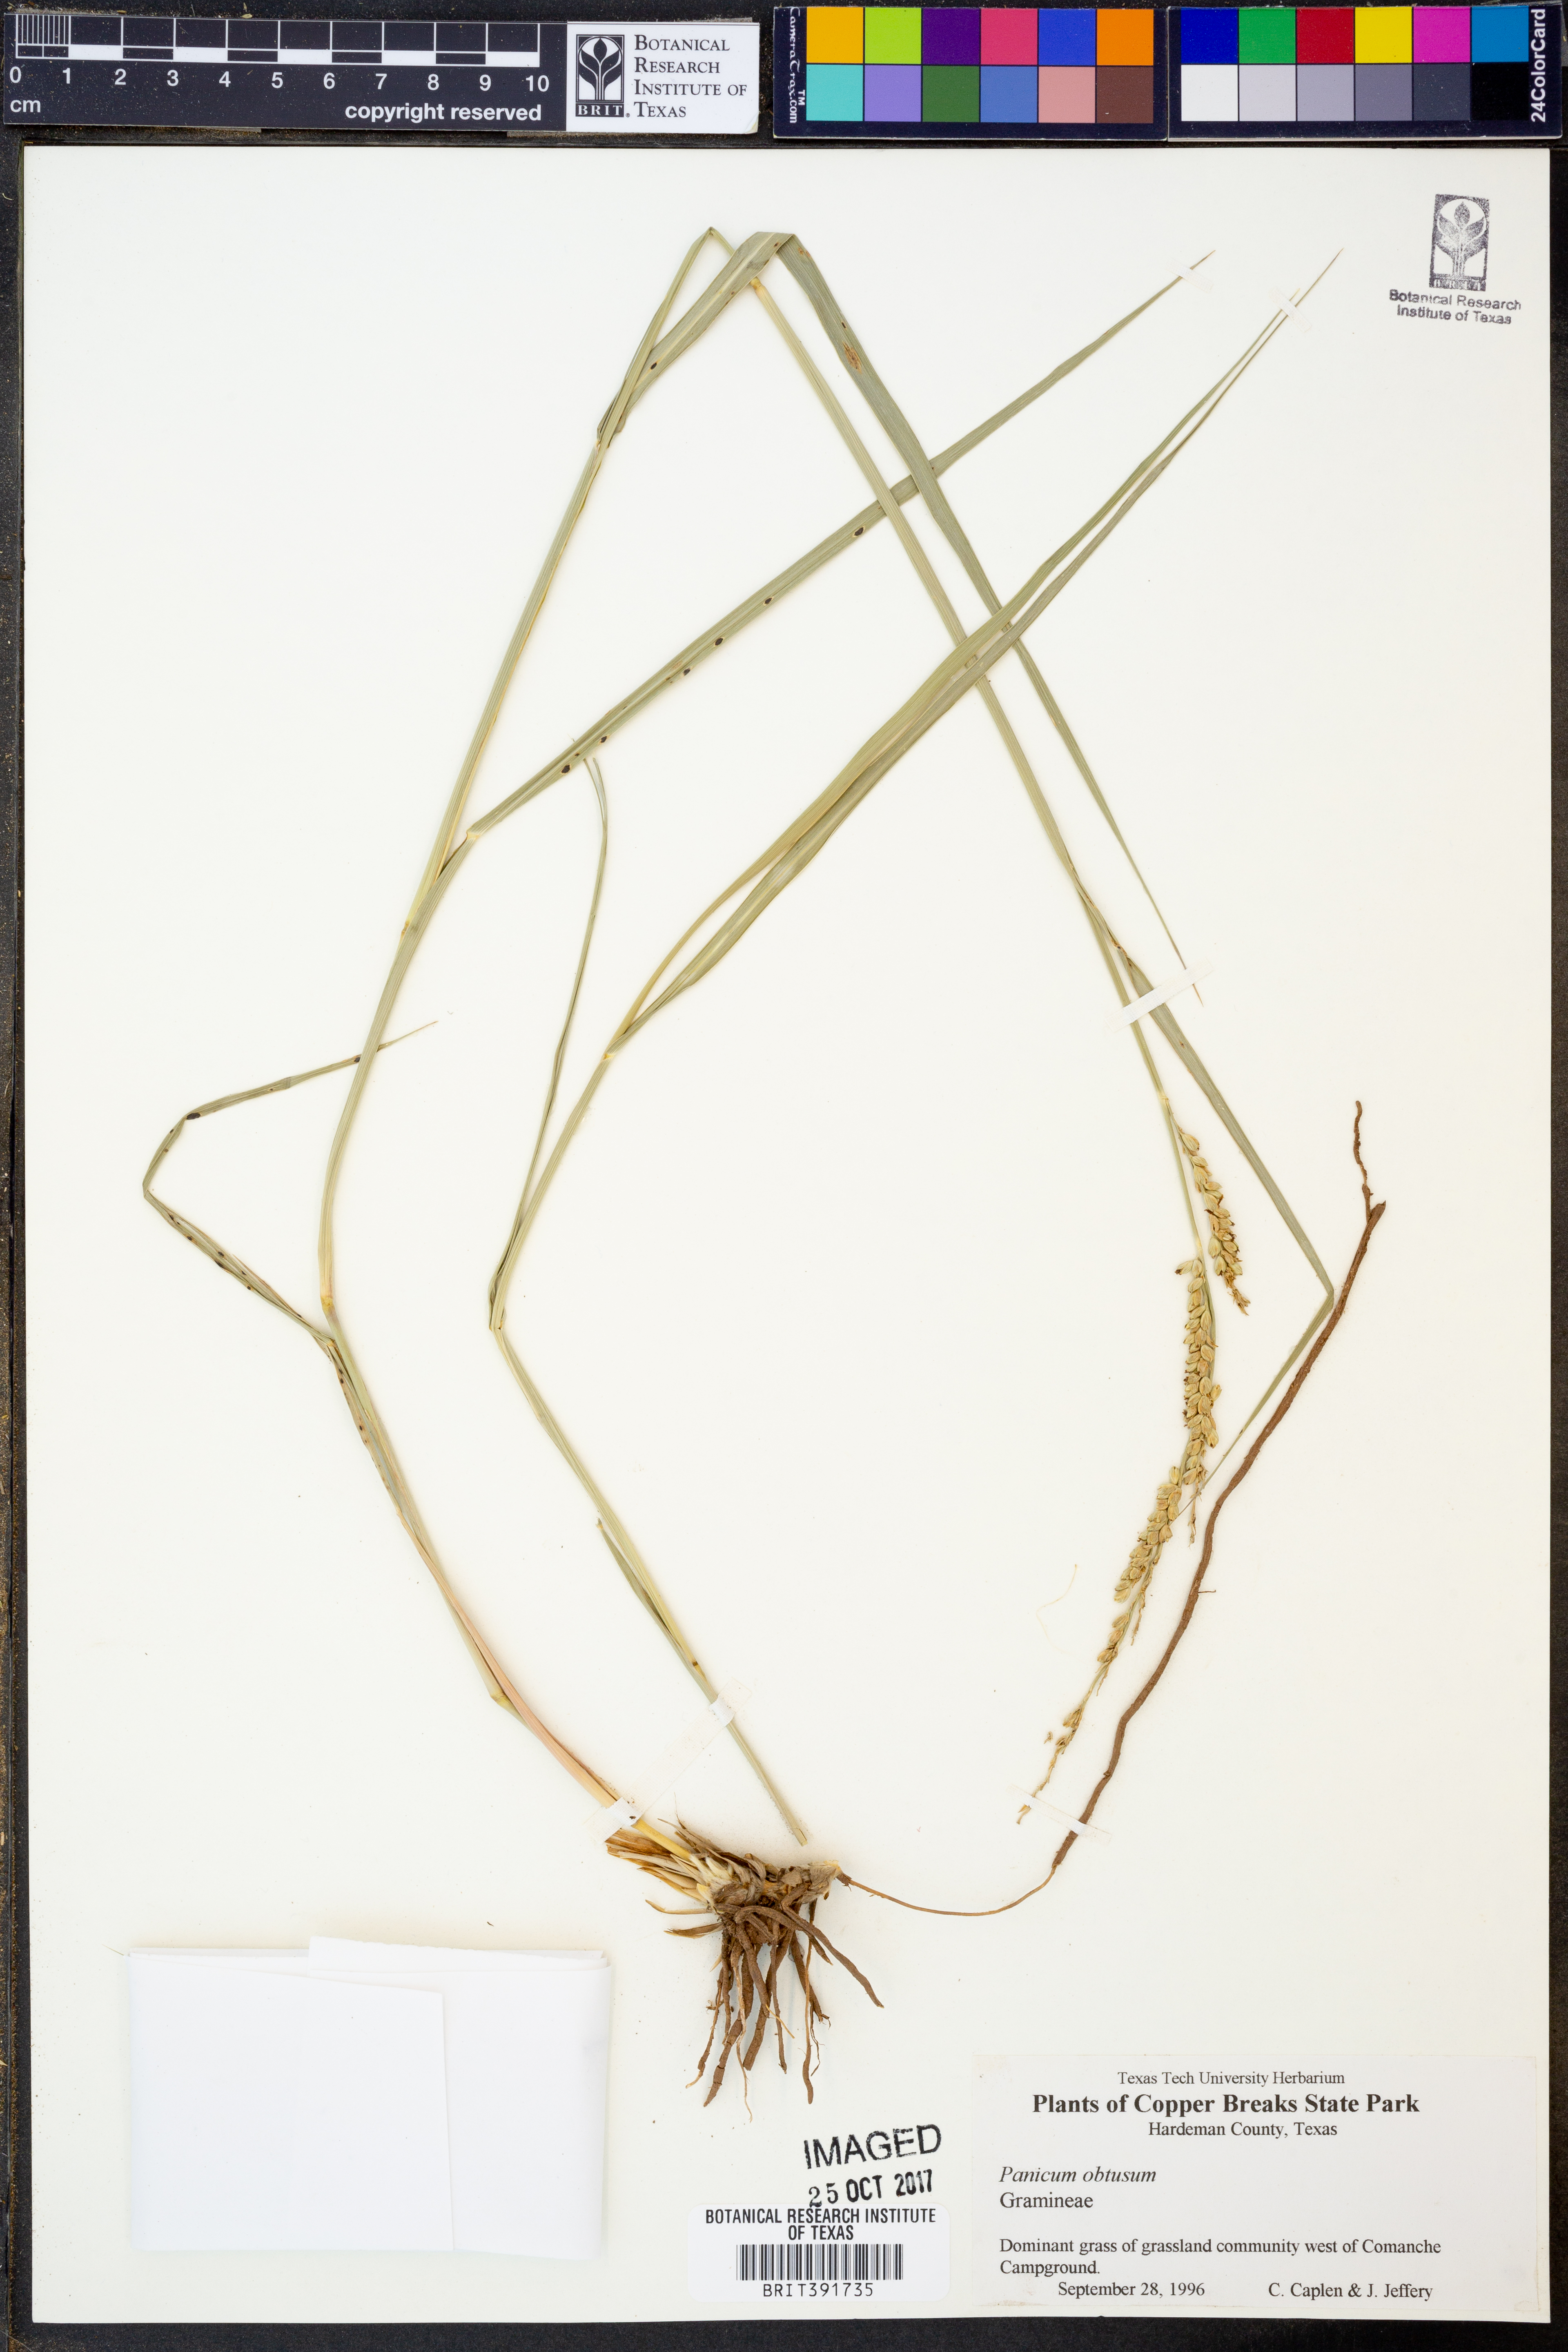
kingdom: Plantae
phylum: Tracheophyta
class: Liliopsida
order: Poales
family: Poaceae
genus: Hopia
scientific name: Hopia obtusa
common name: Vine-mesquite
